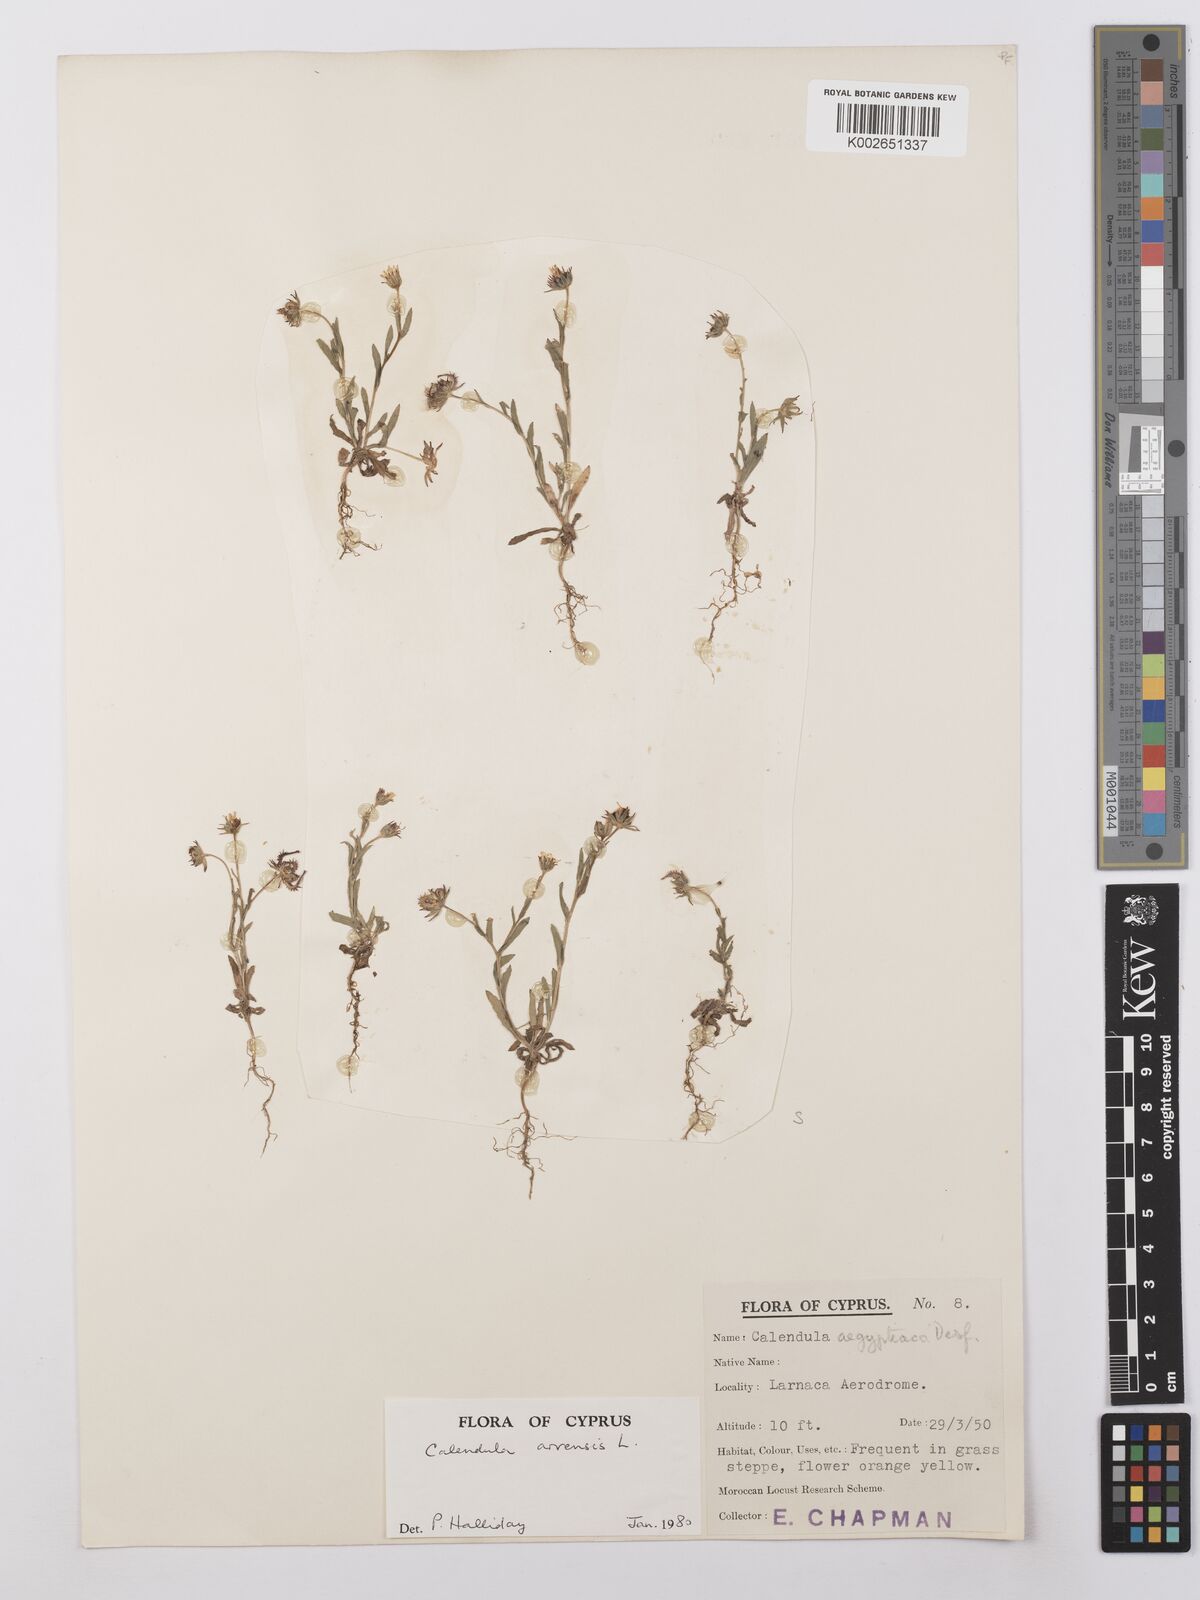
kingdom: Plantae
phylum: Tracheophyta
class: Magnoliopsida
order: Asterales
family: Asteraceae
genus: Calendula
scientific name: Calendula arvensis
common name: Field marigold
